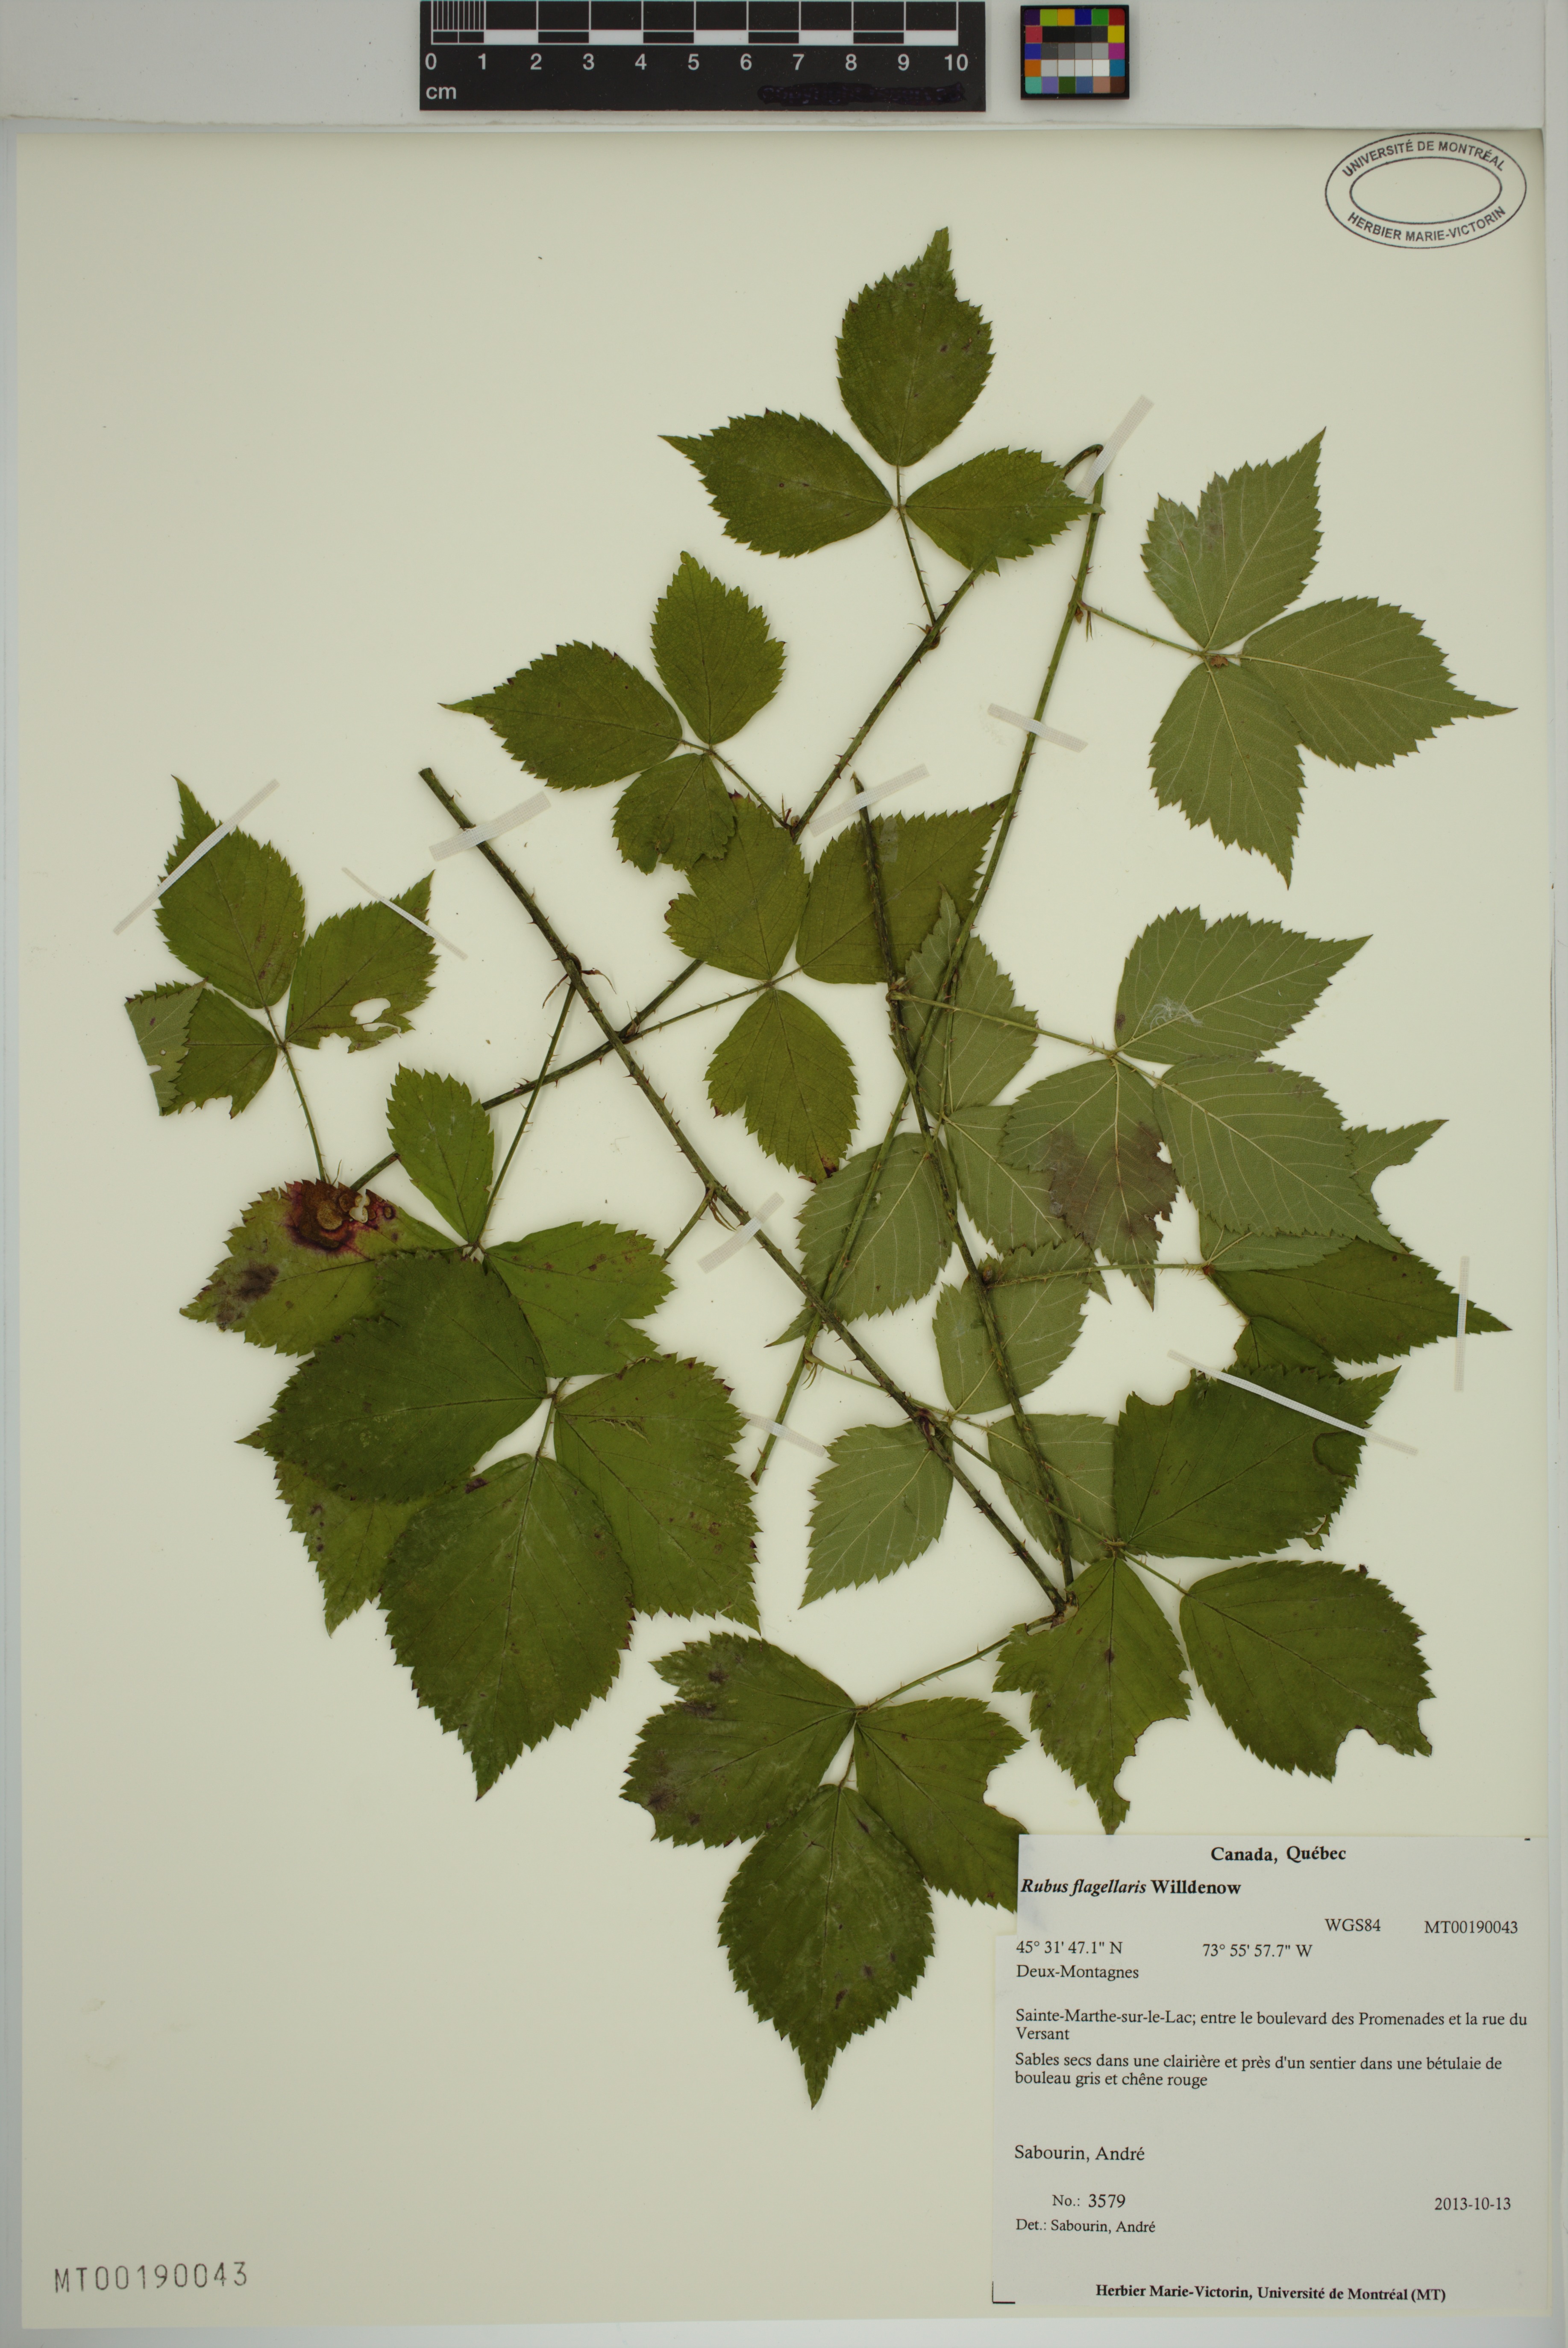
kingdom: Plantae
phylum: Tracheophyta
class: Magnoliopsida
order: Rosales
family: Rosaceae
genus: Rubus
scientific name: Rubus flagellaris
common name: American dewberry
